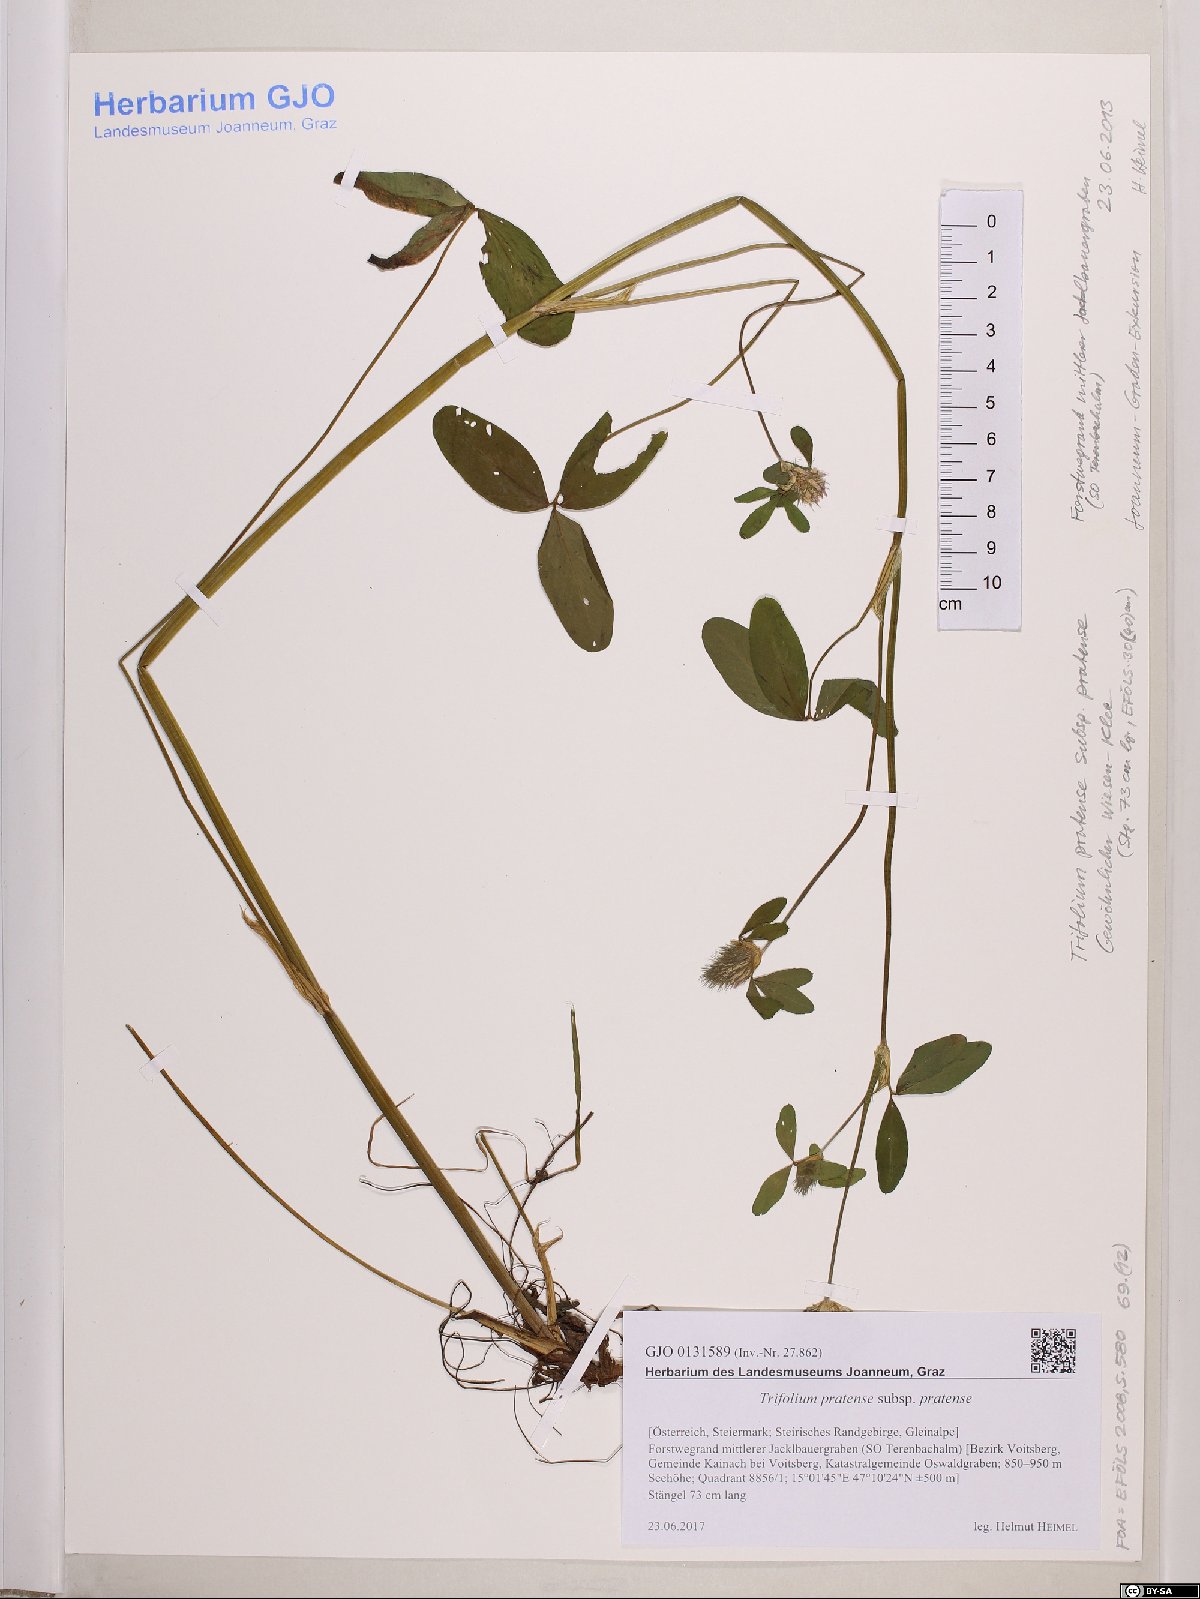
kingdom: Plantae
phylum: Tracheophyta
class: Magnoliopsida
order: Fabales
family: Fabaceae
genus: Trifolium
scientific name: Trifolium pratense
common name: Red clover
